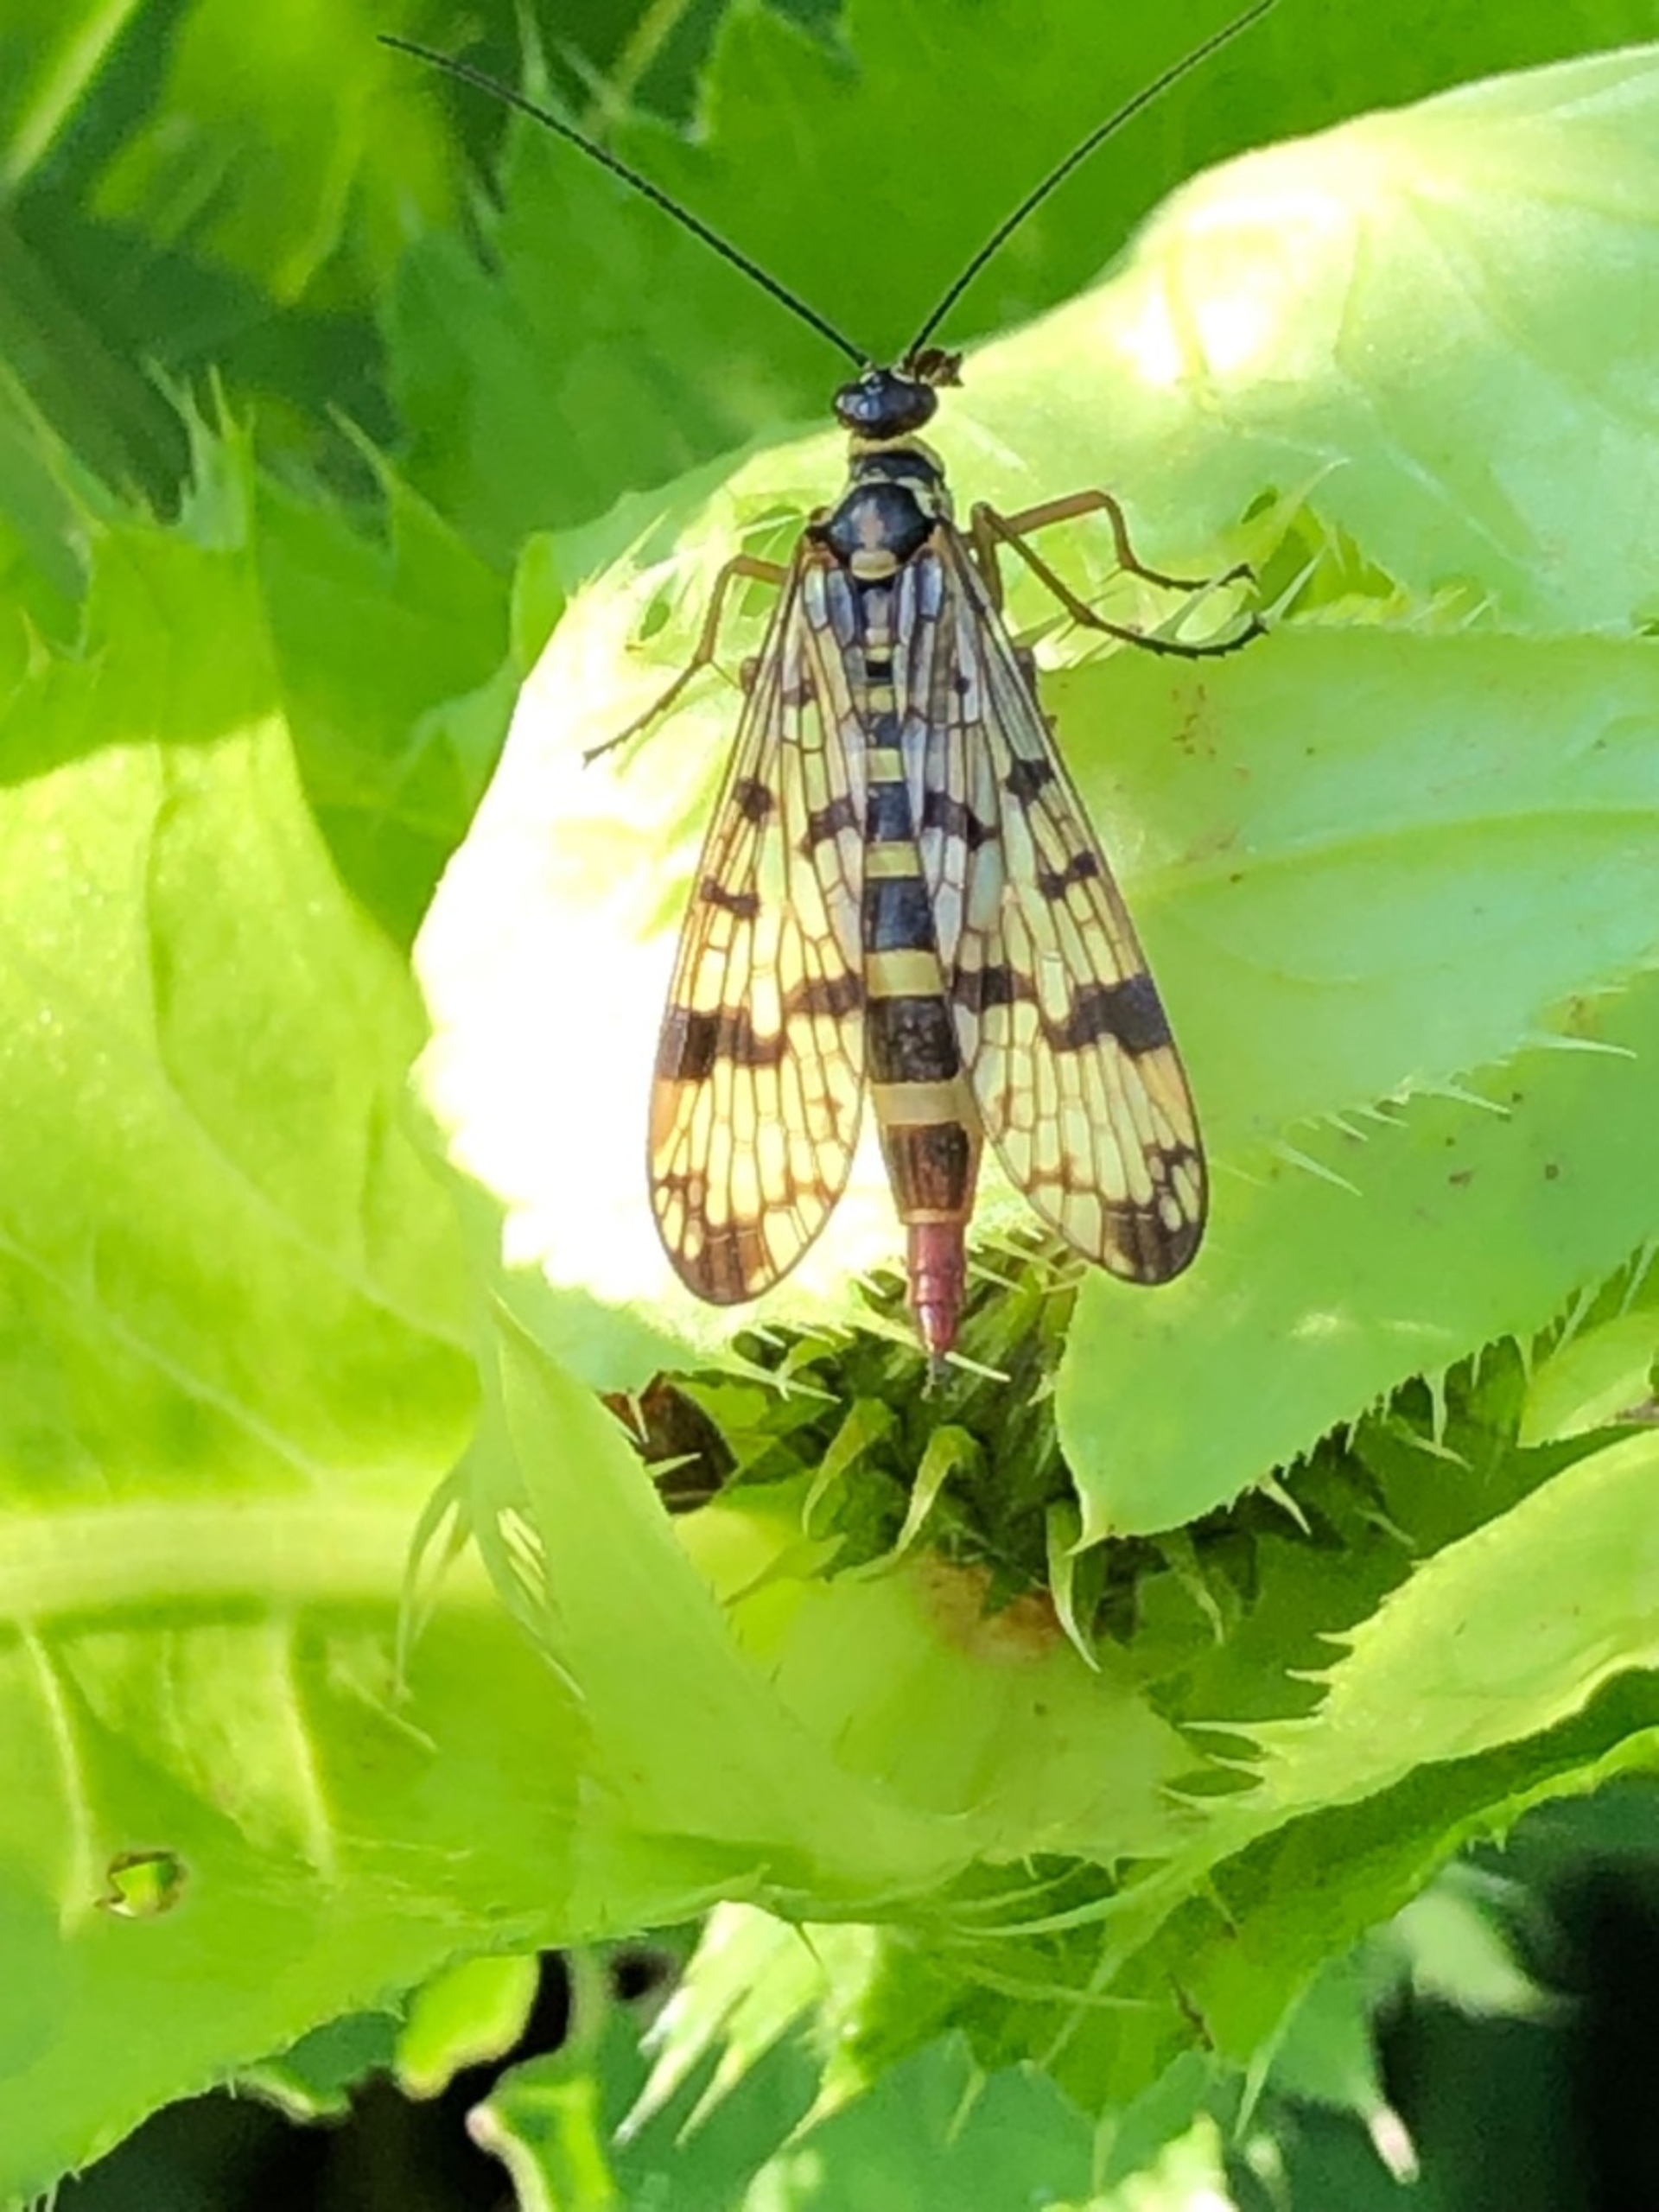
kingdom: Animalia
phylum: Arthropoda
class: Insecta
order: Mecoptera
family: Panorpidae
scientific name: Panorpidae
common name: Egentlige skorpionfluer
